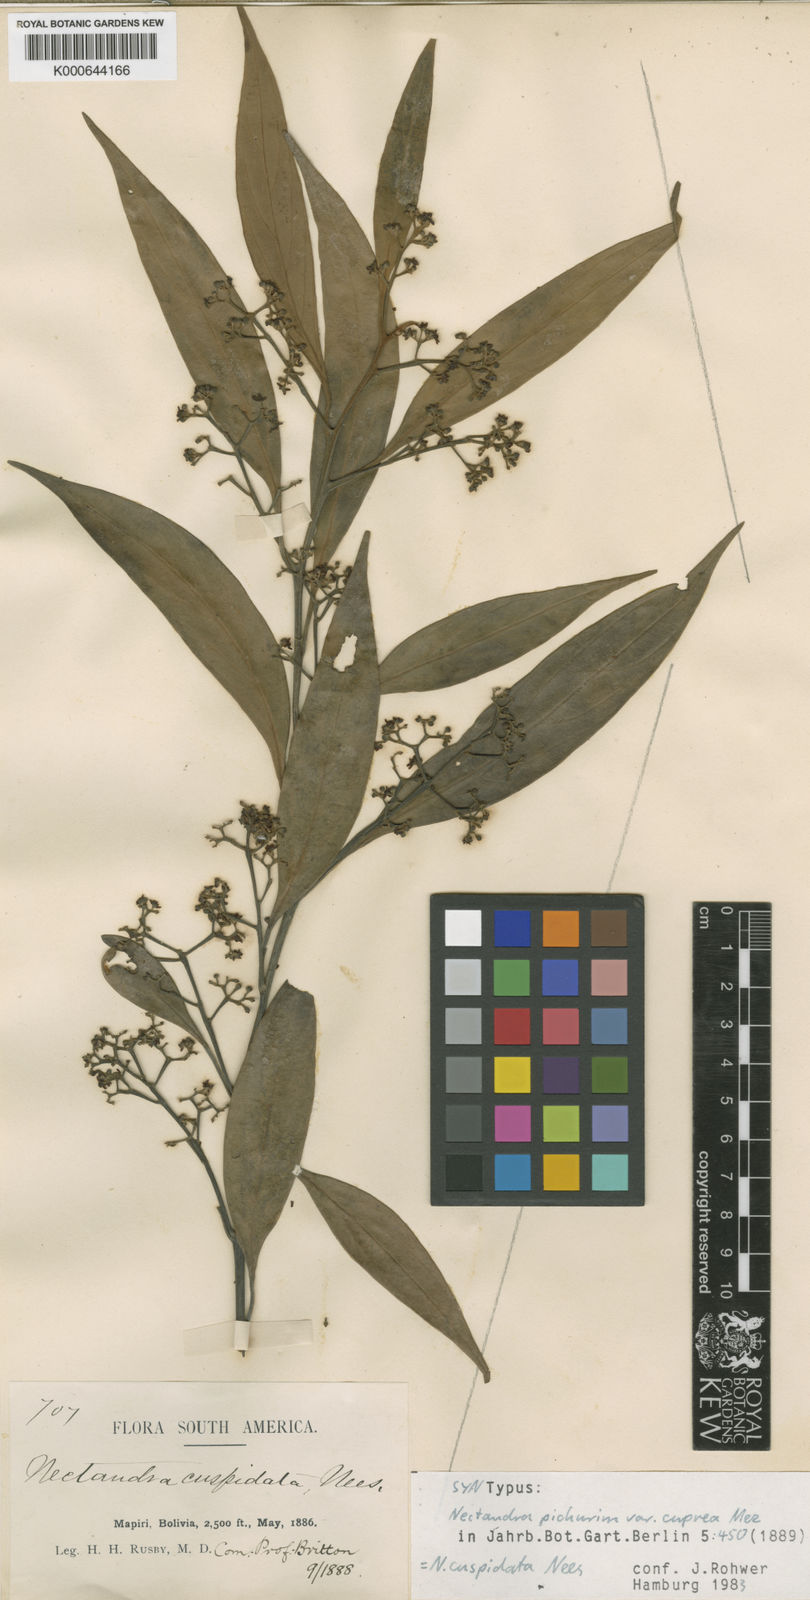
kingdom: Plantae
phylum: Tracheophyta
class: Magnoliopsida
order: Laurales
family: Lauraceae
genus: Nectandra
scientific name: Nectandra cuspidata
